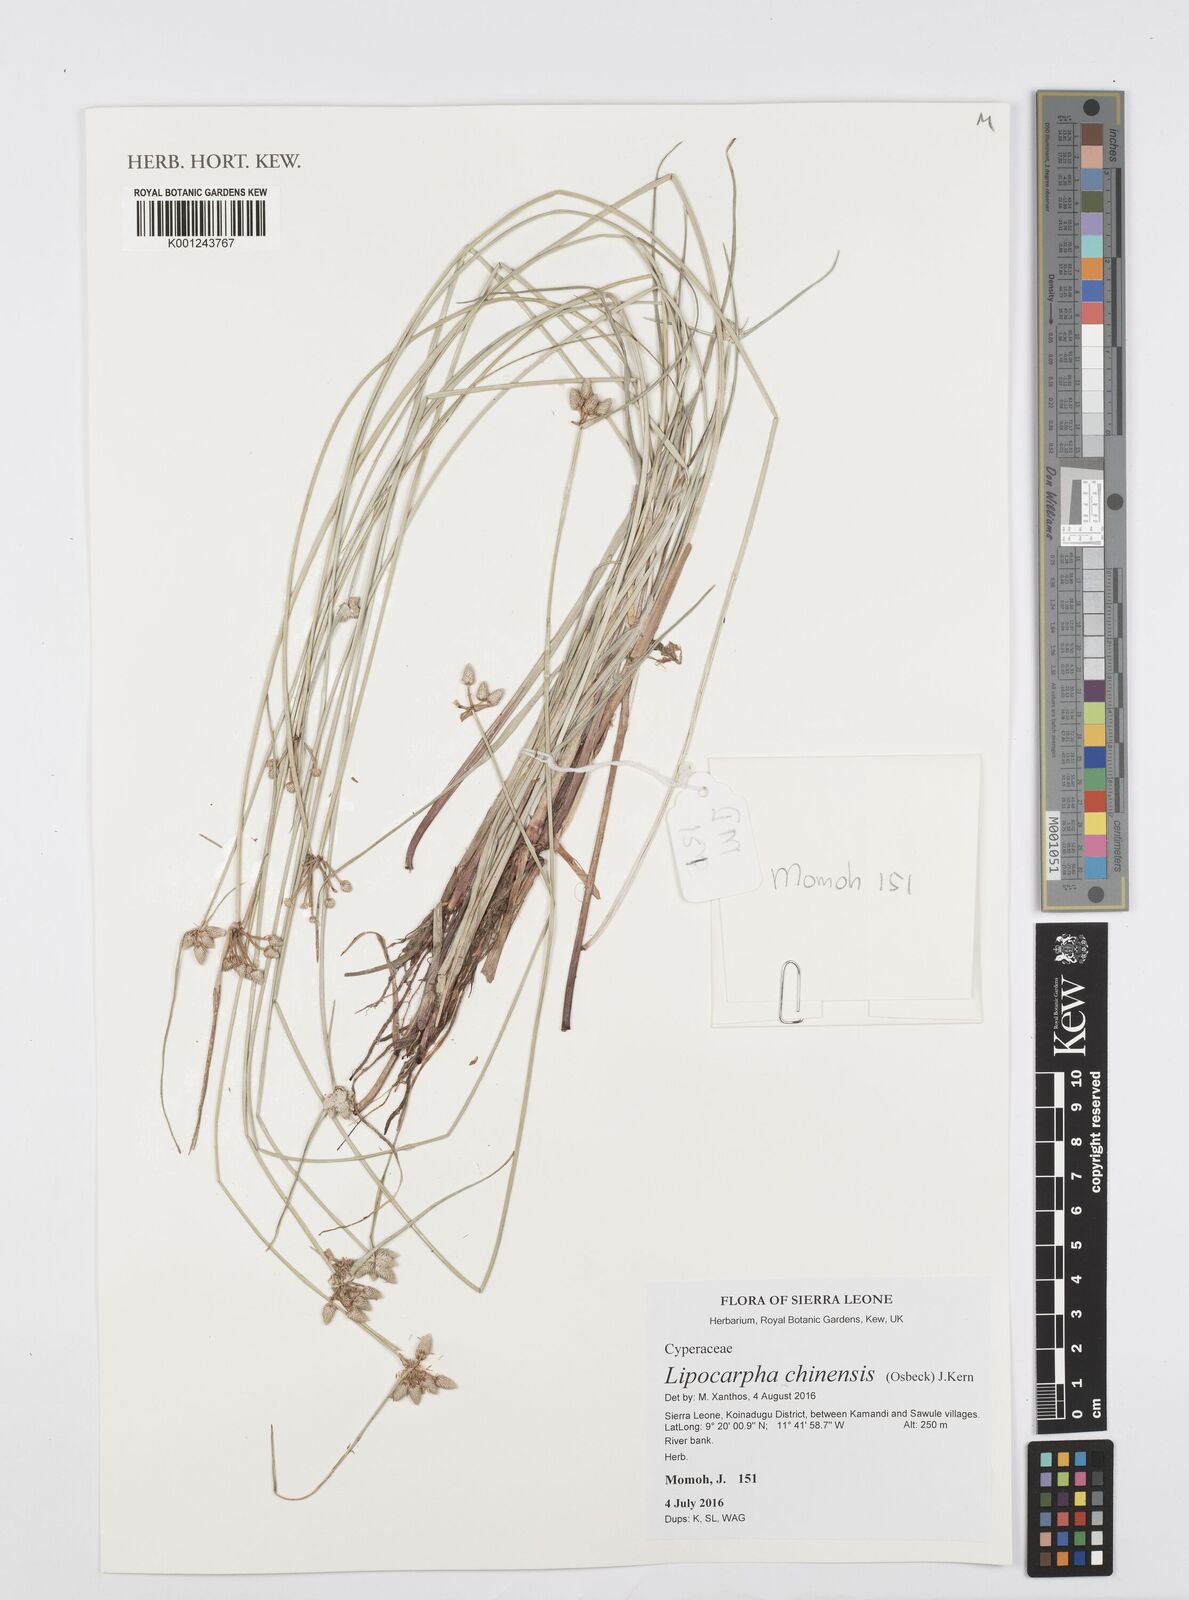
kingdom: Plantae
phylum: Tracheophyta
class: Liliopsida
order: Poales
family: Cyperaceae
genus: Cyperus
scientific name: Cyperus albescens
